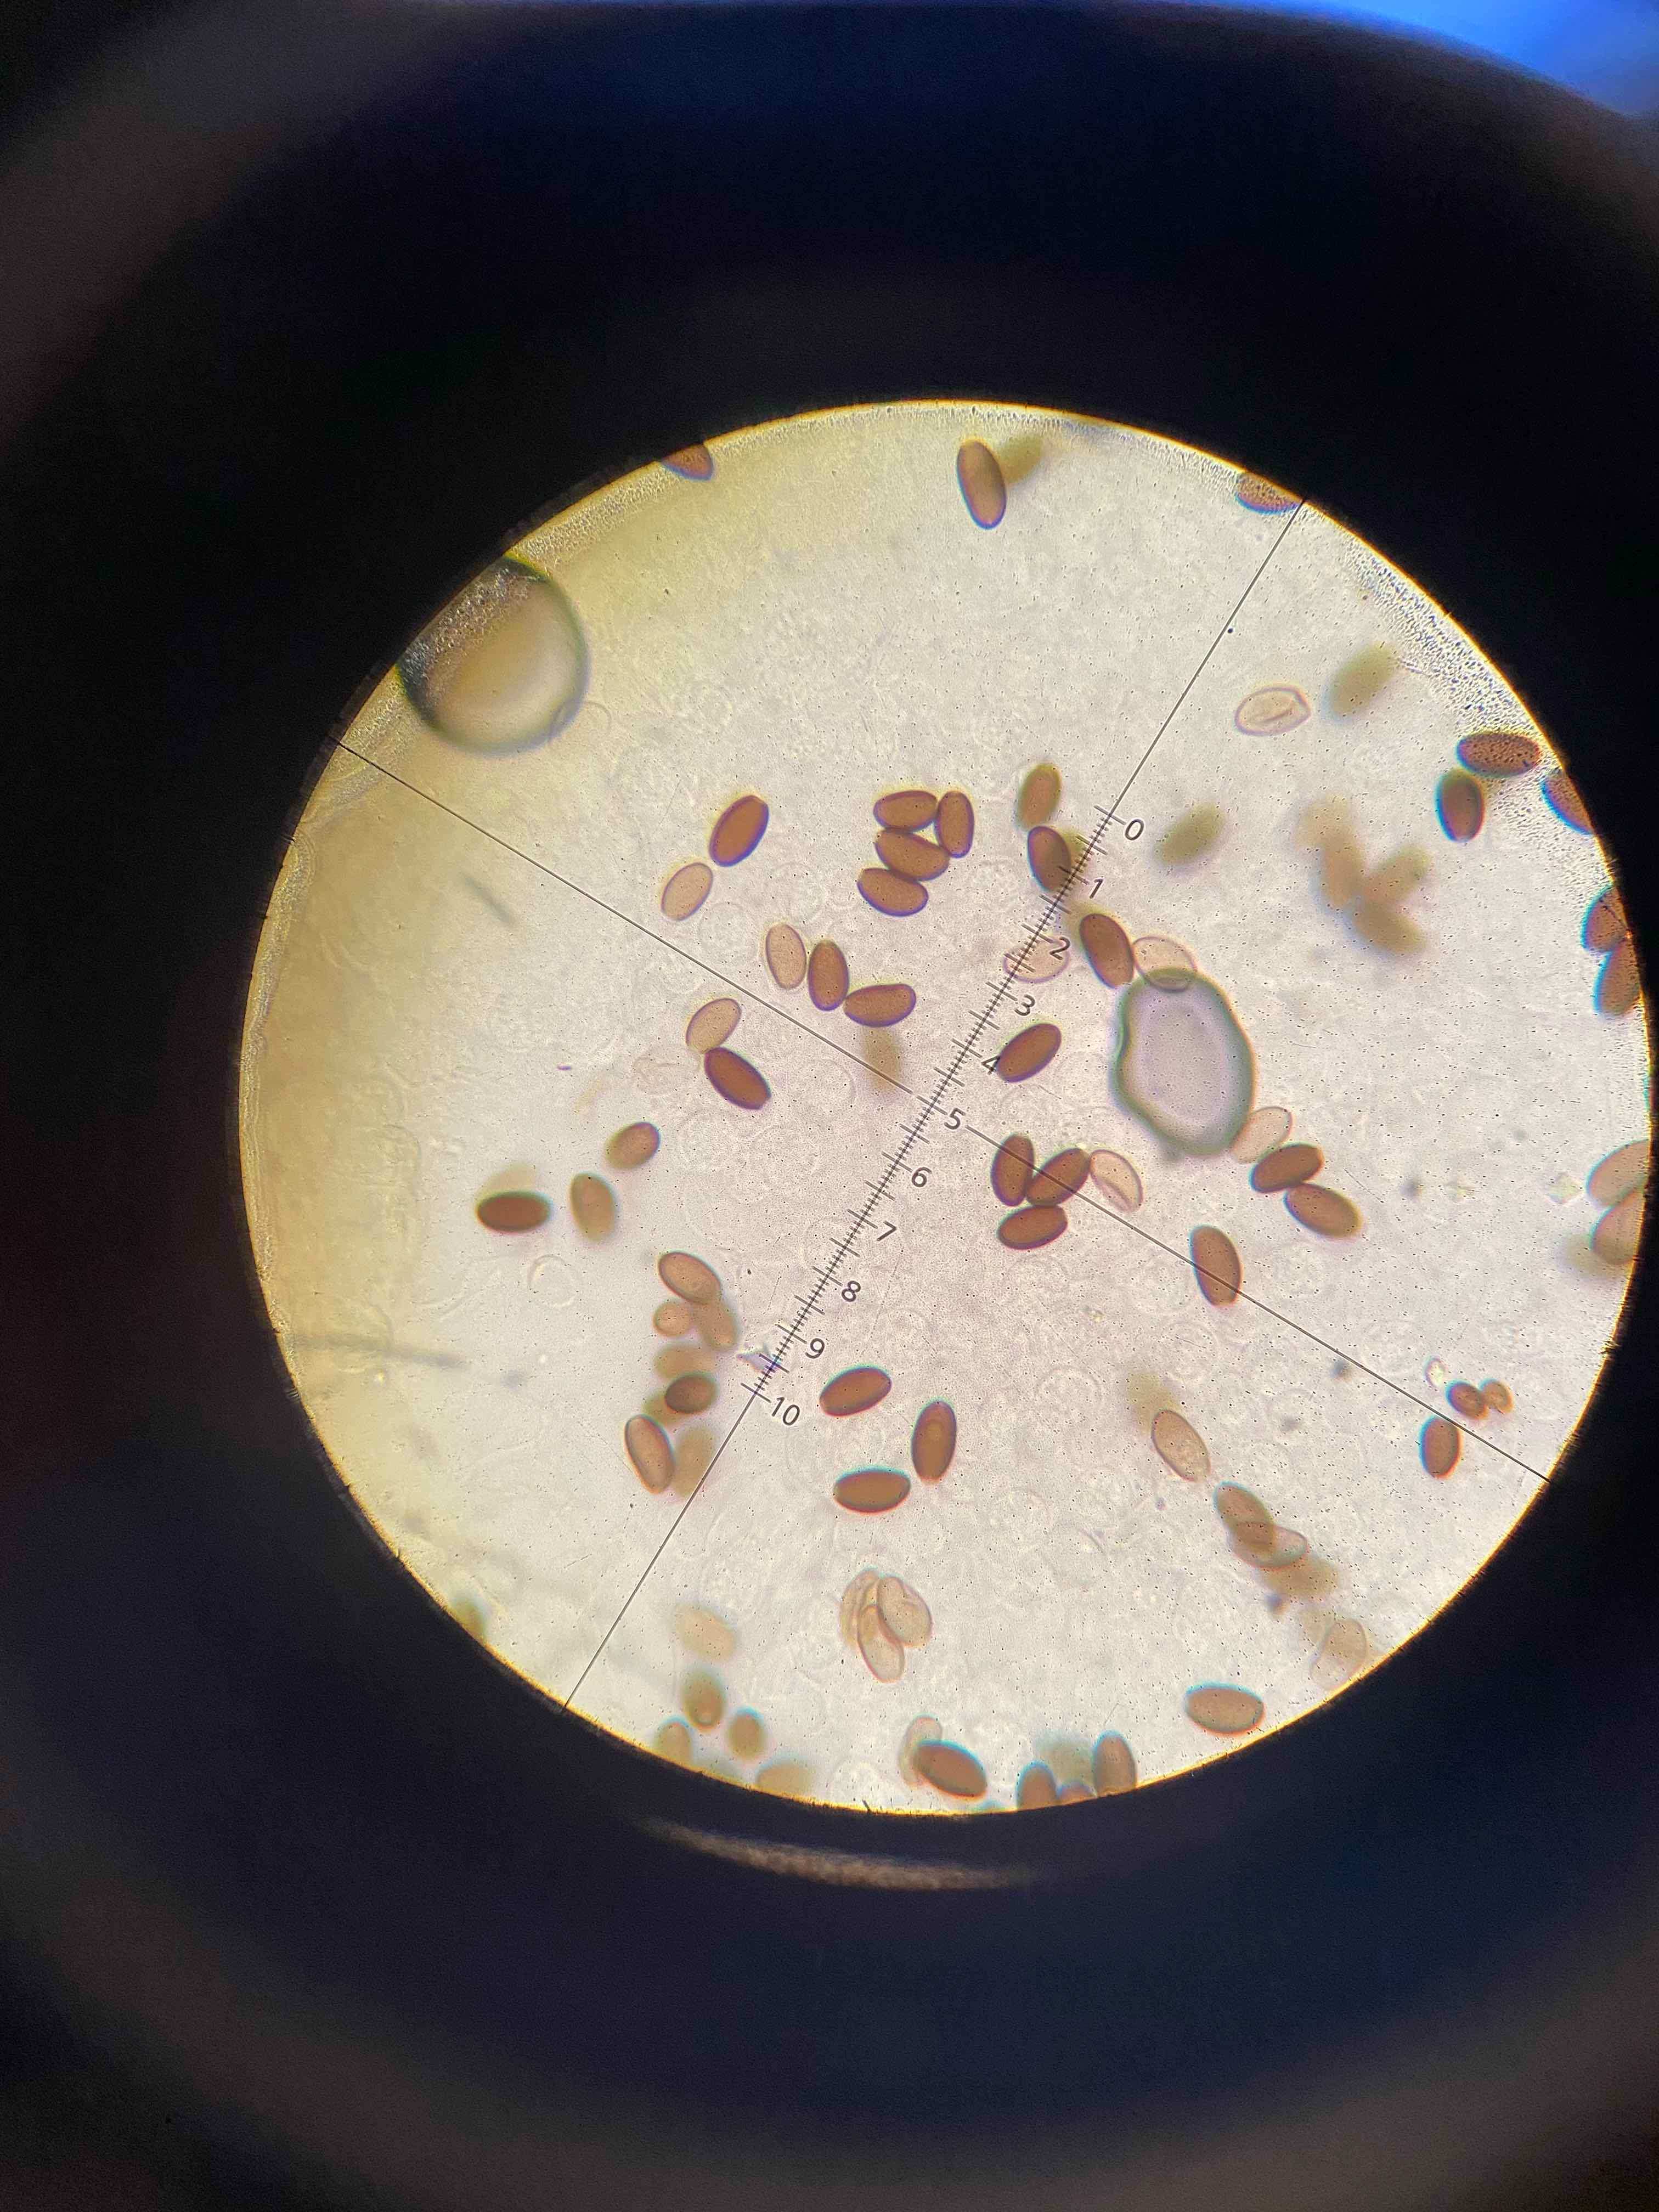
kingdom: Fungi
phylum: Basidiomycota
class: Agaricomycetes
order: Agaricales
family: Hymenogastraceae
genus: Psilocybe
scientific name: Psilocybe semilanceata
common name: spids nøgenhat
